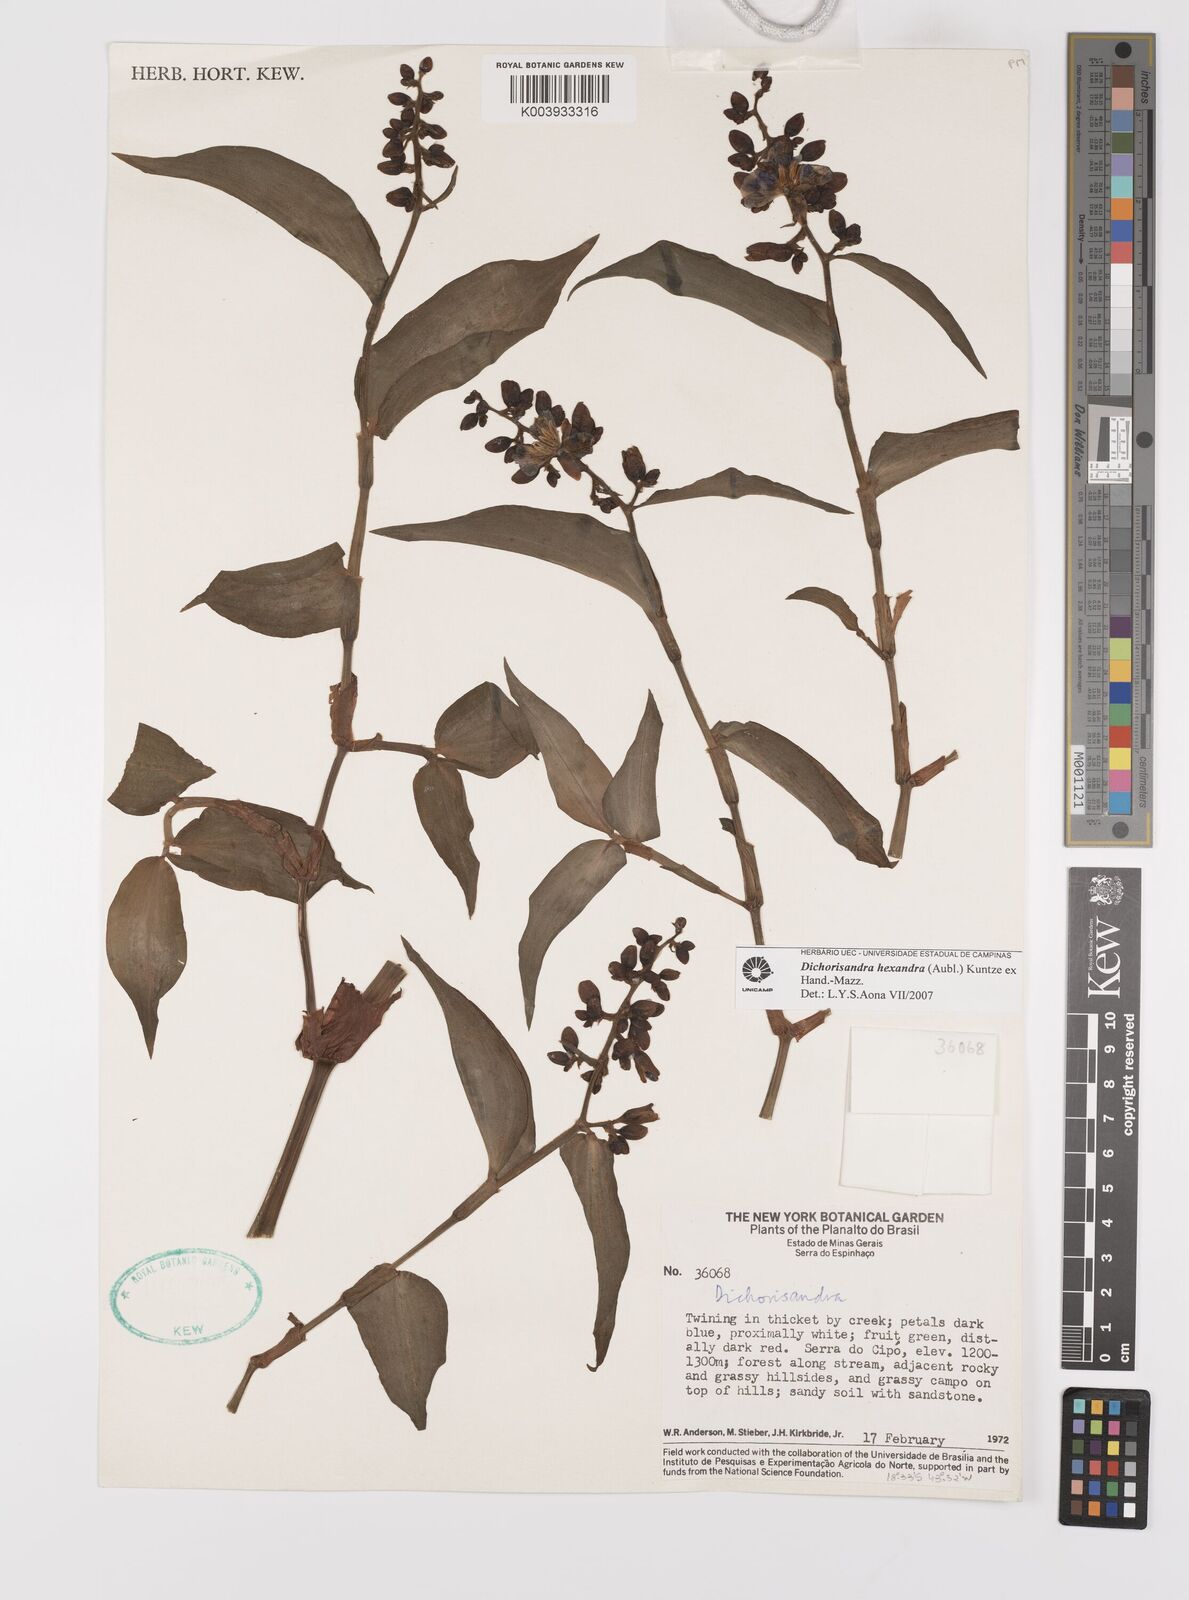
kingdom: Plantae
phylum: Tracheophyta
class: Liliopsida
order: Commelinales
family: Commelinaceae
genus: Dichorisandra
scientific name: Dichorisandra hexandra
